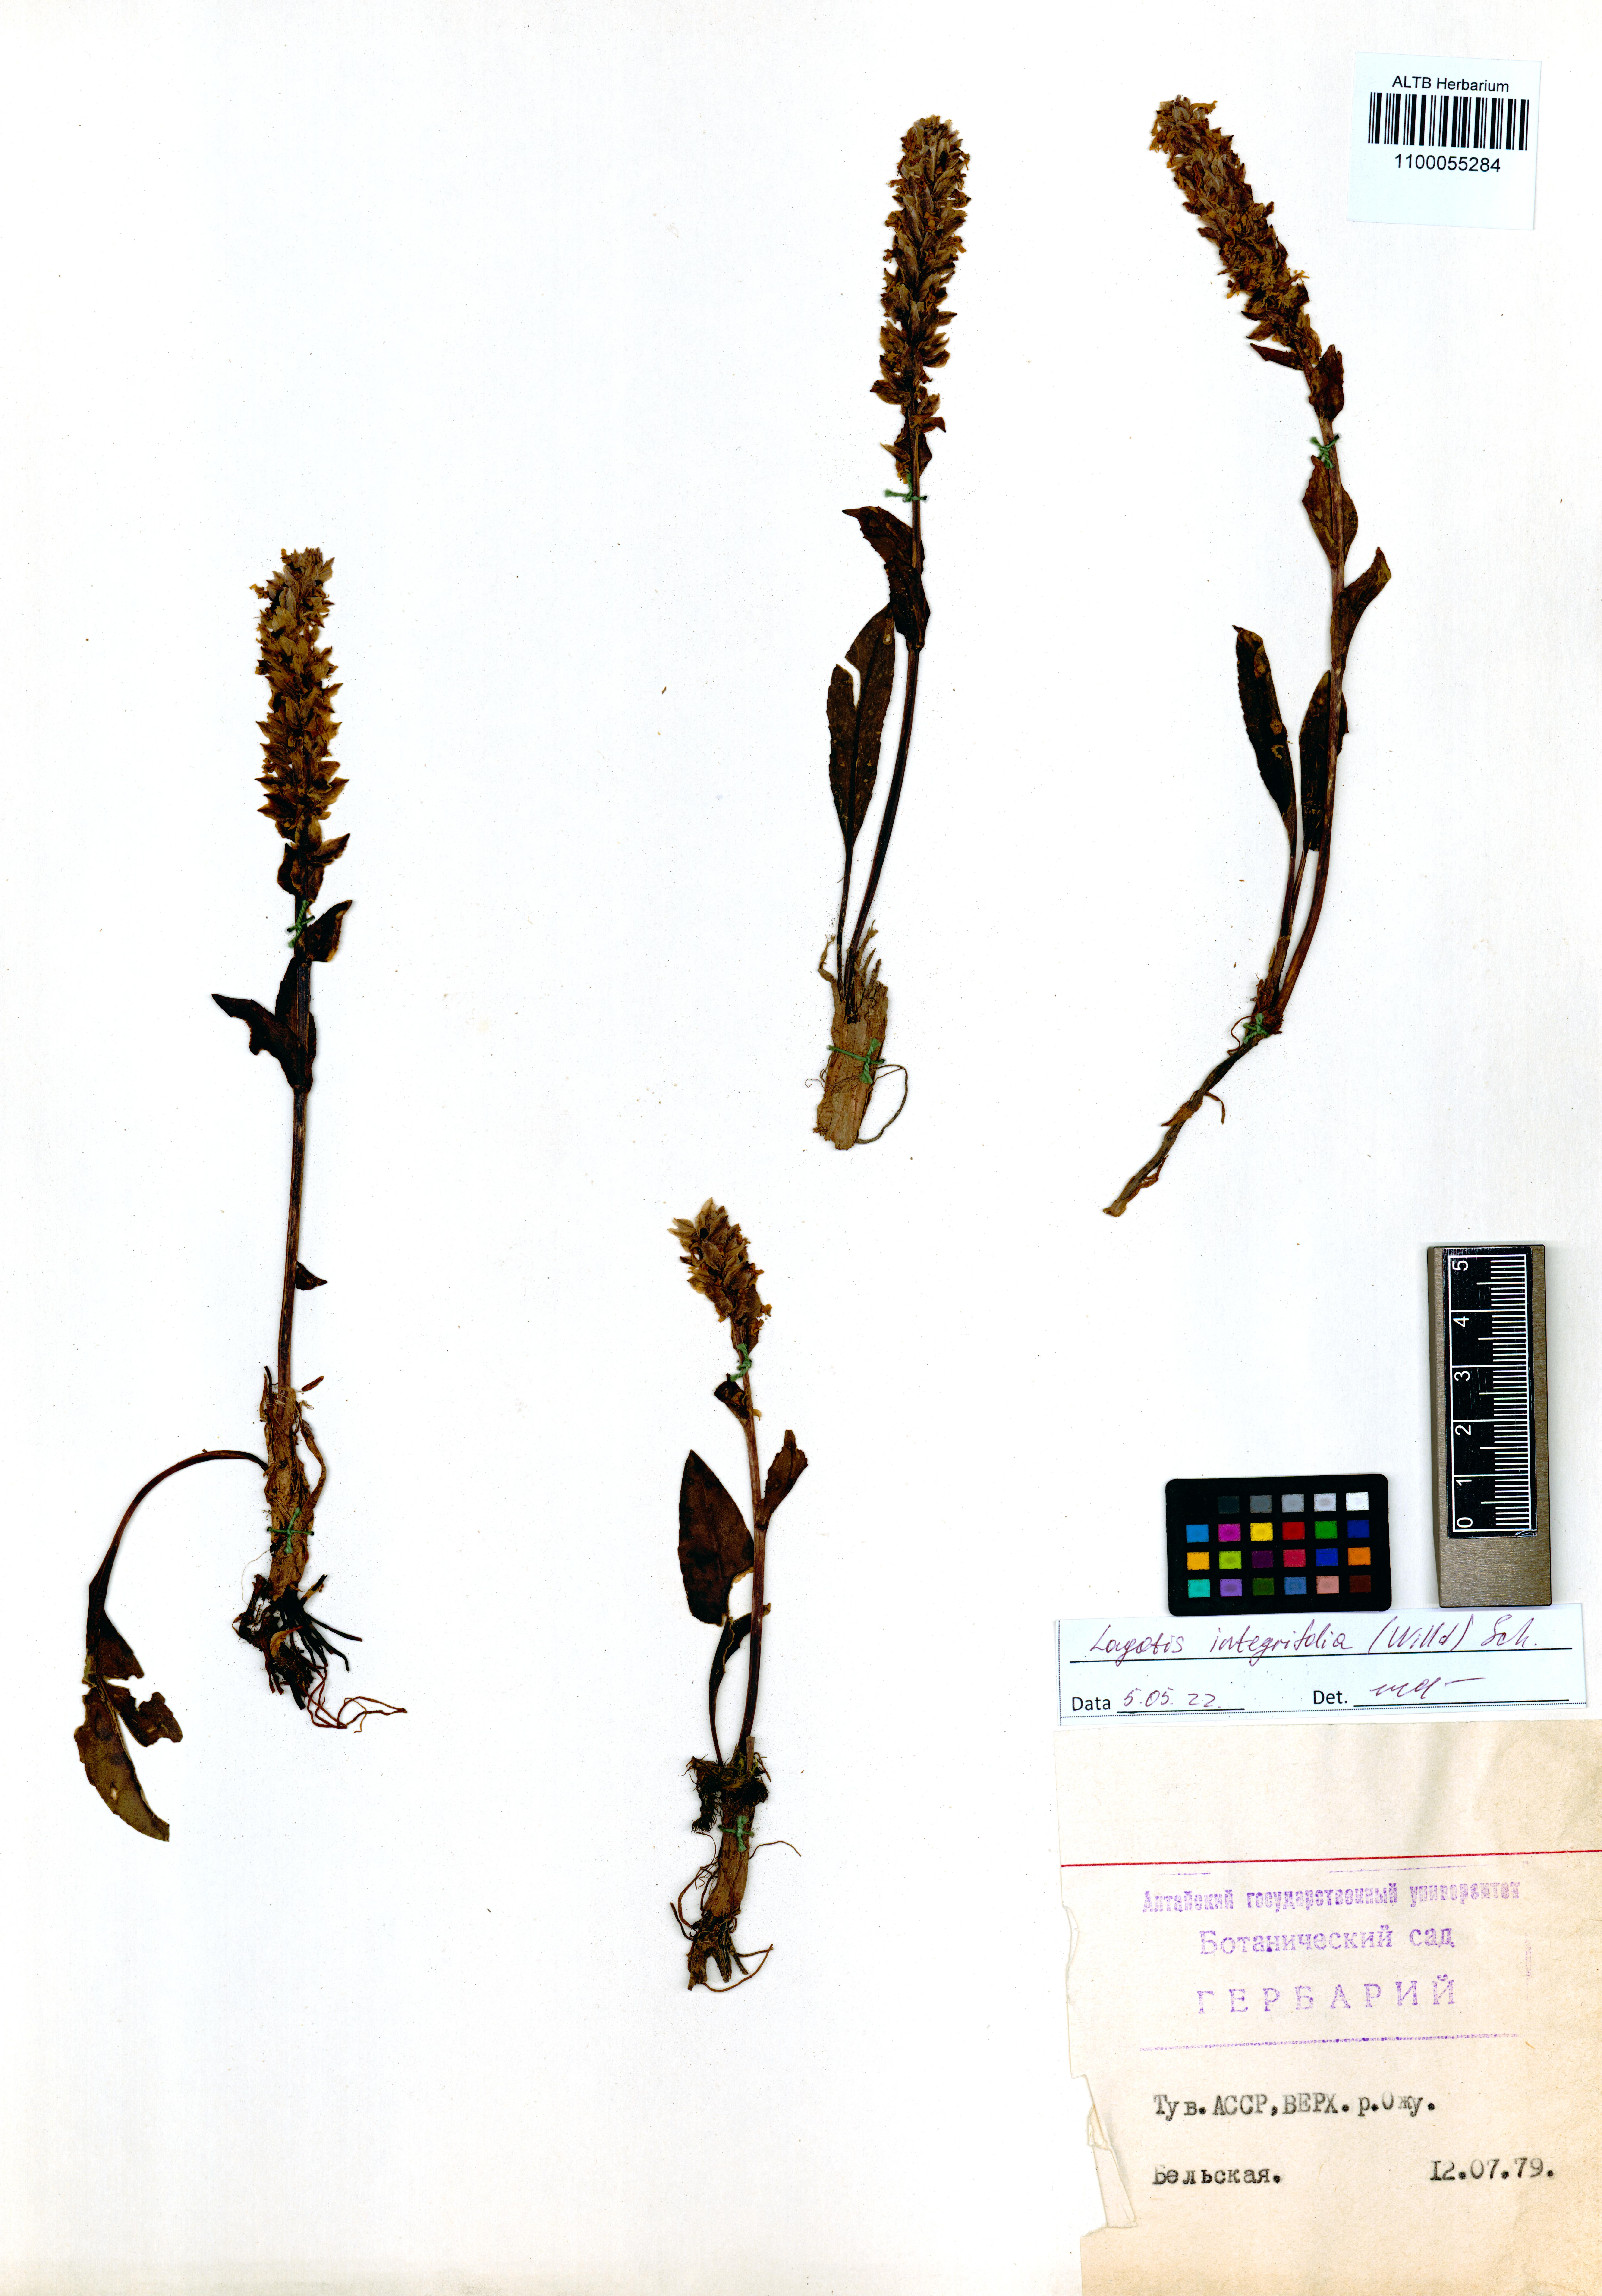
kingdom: Plantae
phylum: Tracheophyta
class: Magnoliopsida
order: Lamiales
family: Plantaginaceae
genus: Lagotis
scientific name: Lagotis integrifolia
